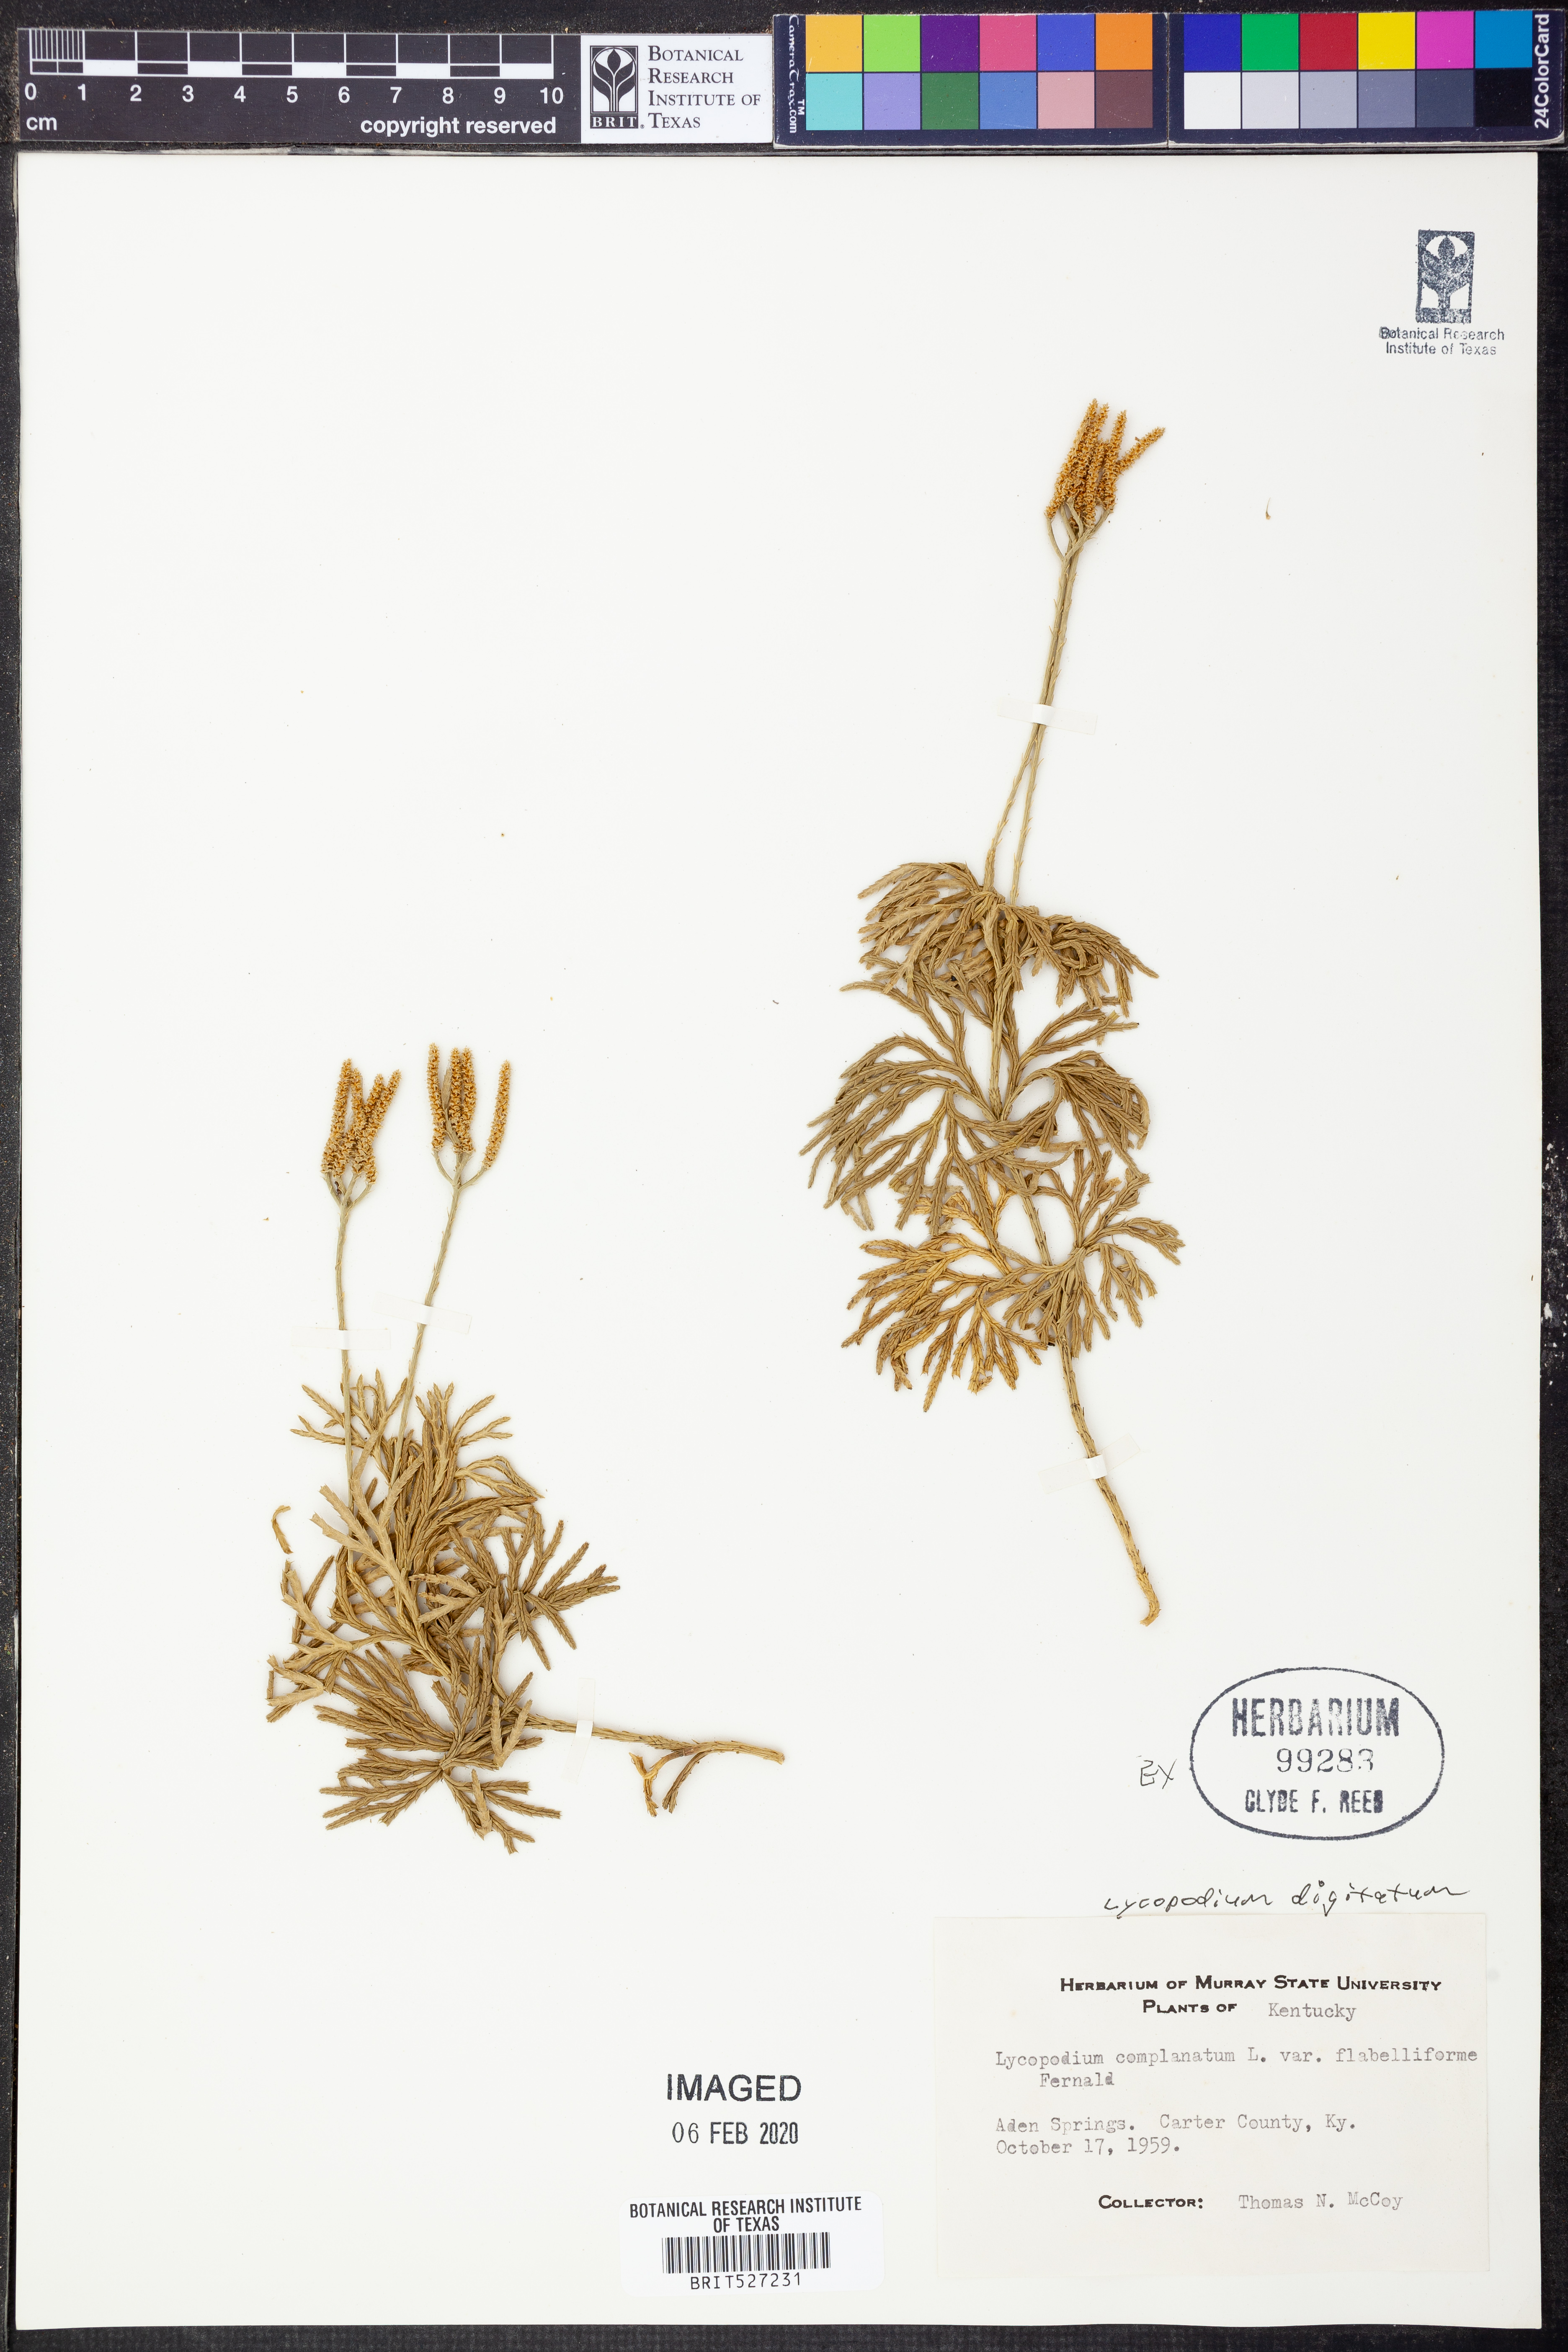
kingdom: Plantae
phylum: Tracheophyta
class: Lycopodiopsida
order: Lycopodiales
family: Lycopodiaceae
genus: Diphasiastrum
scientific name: Diphasiastrum digitatum
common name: Southern running-pine
